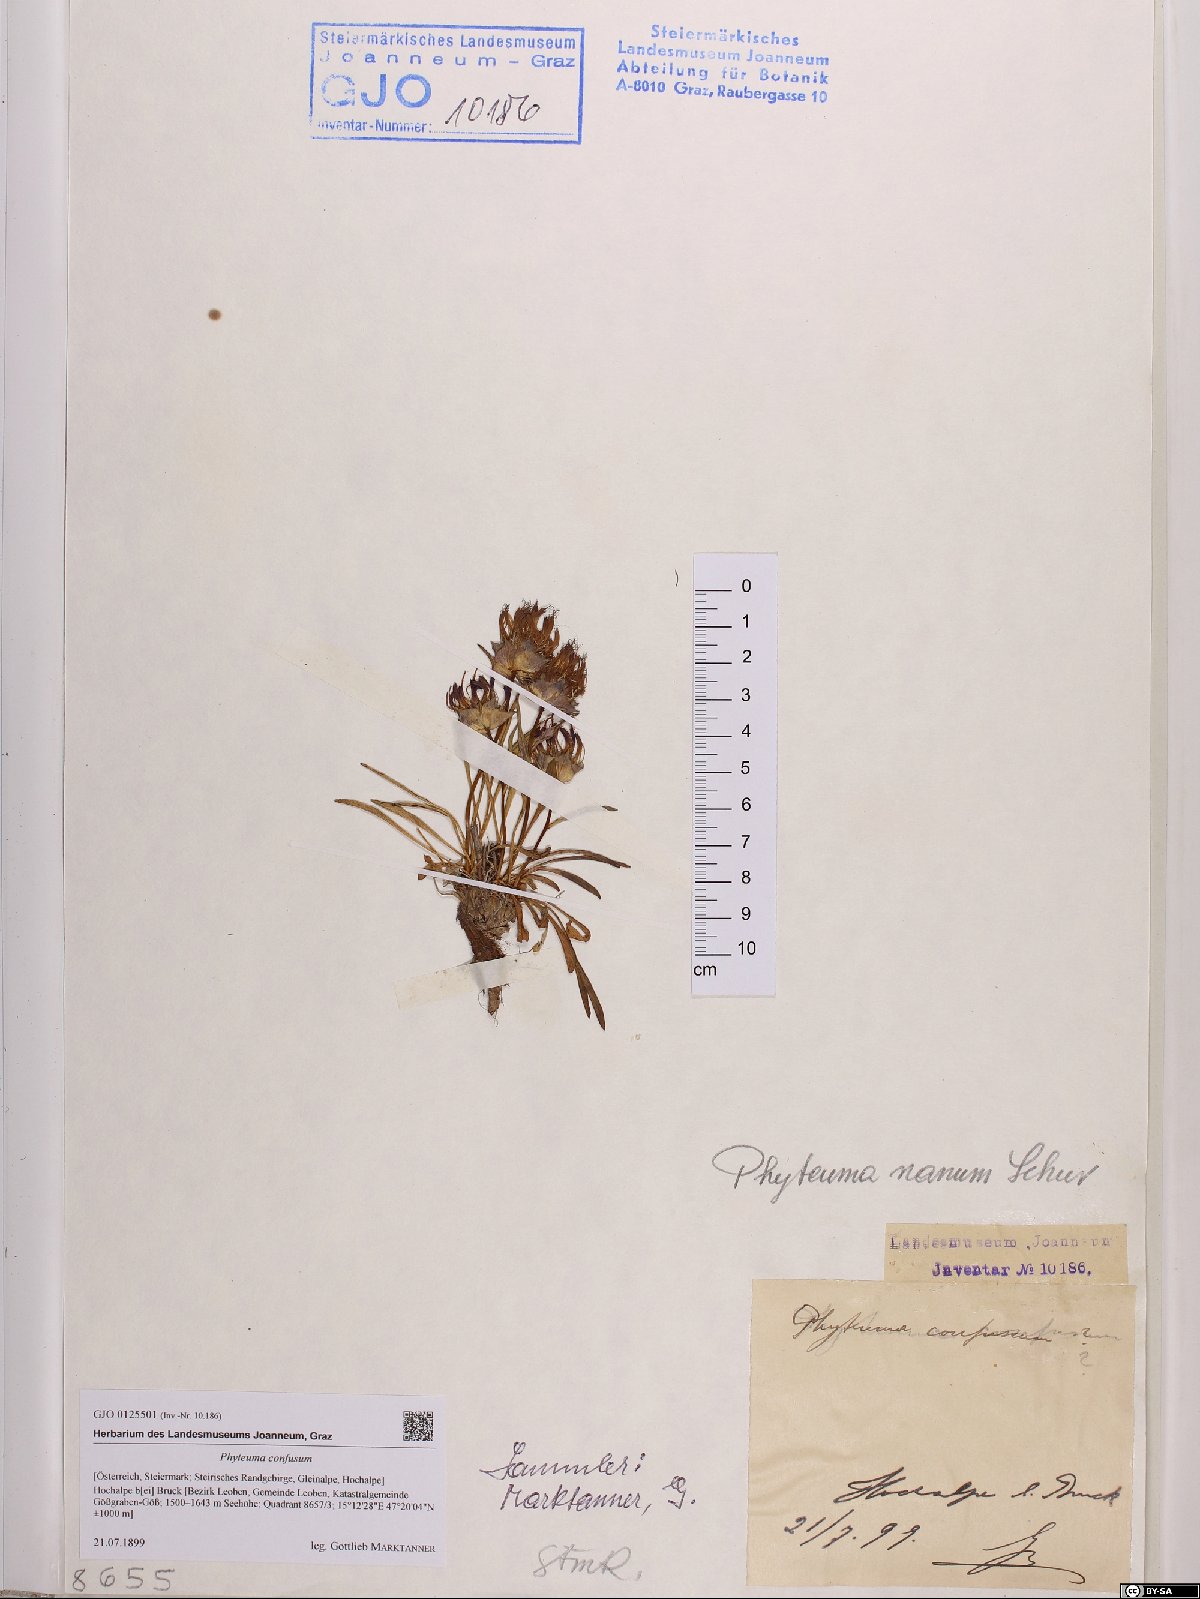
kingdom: Plantae
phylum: Tracheophyta
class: Magnoliopsida
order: Asterales
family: Campanulaceae
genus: Phyteuma
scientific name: Phyteuma confusum
